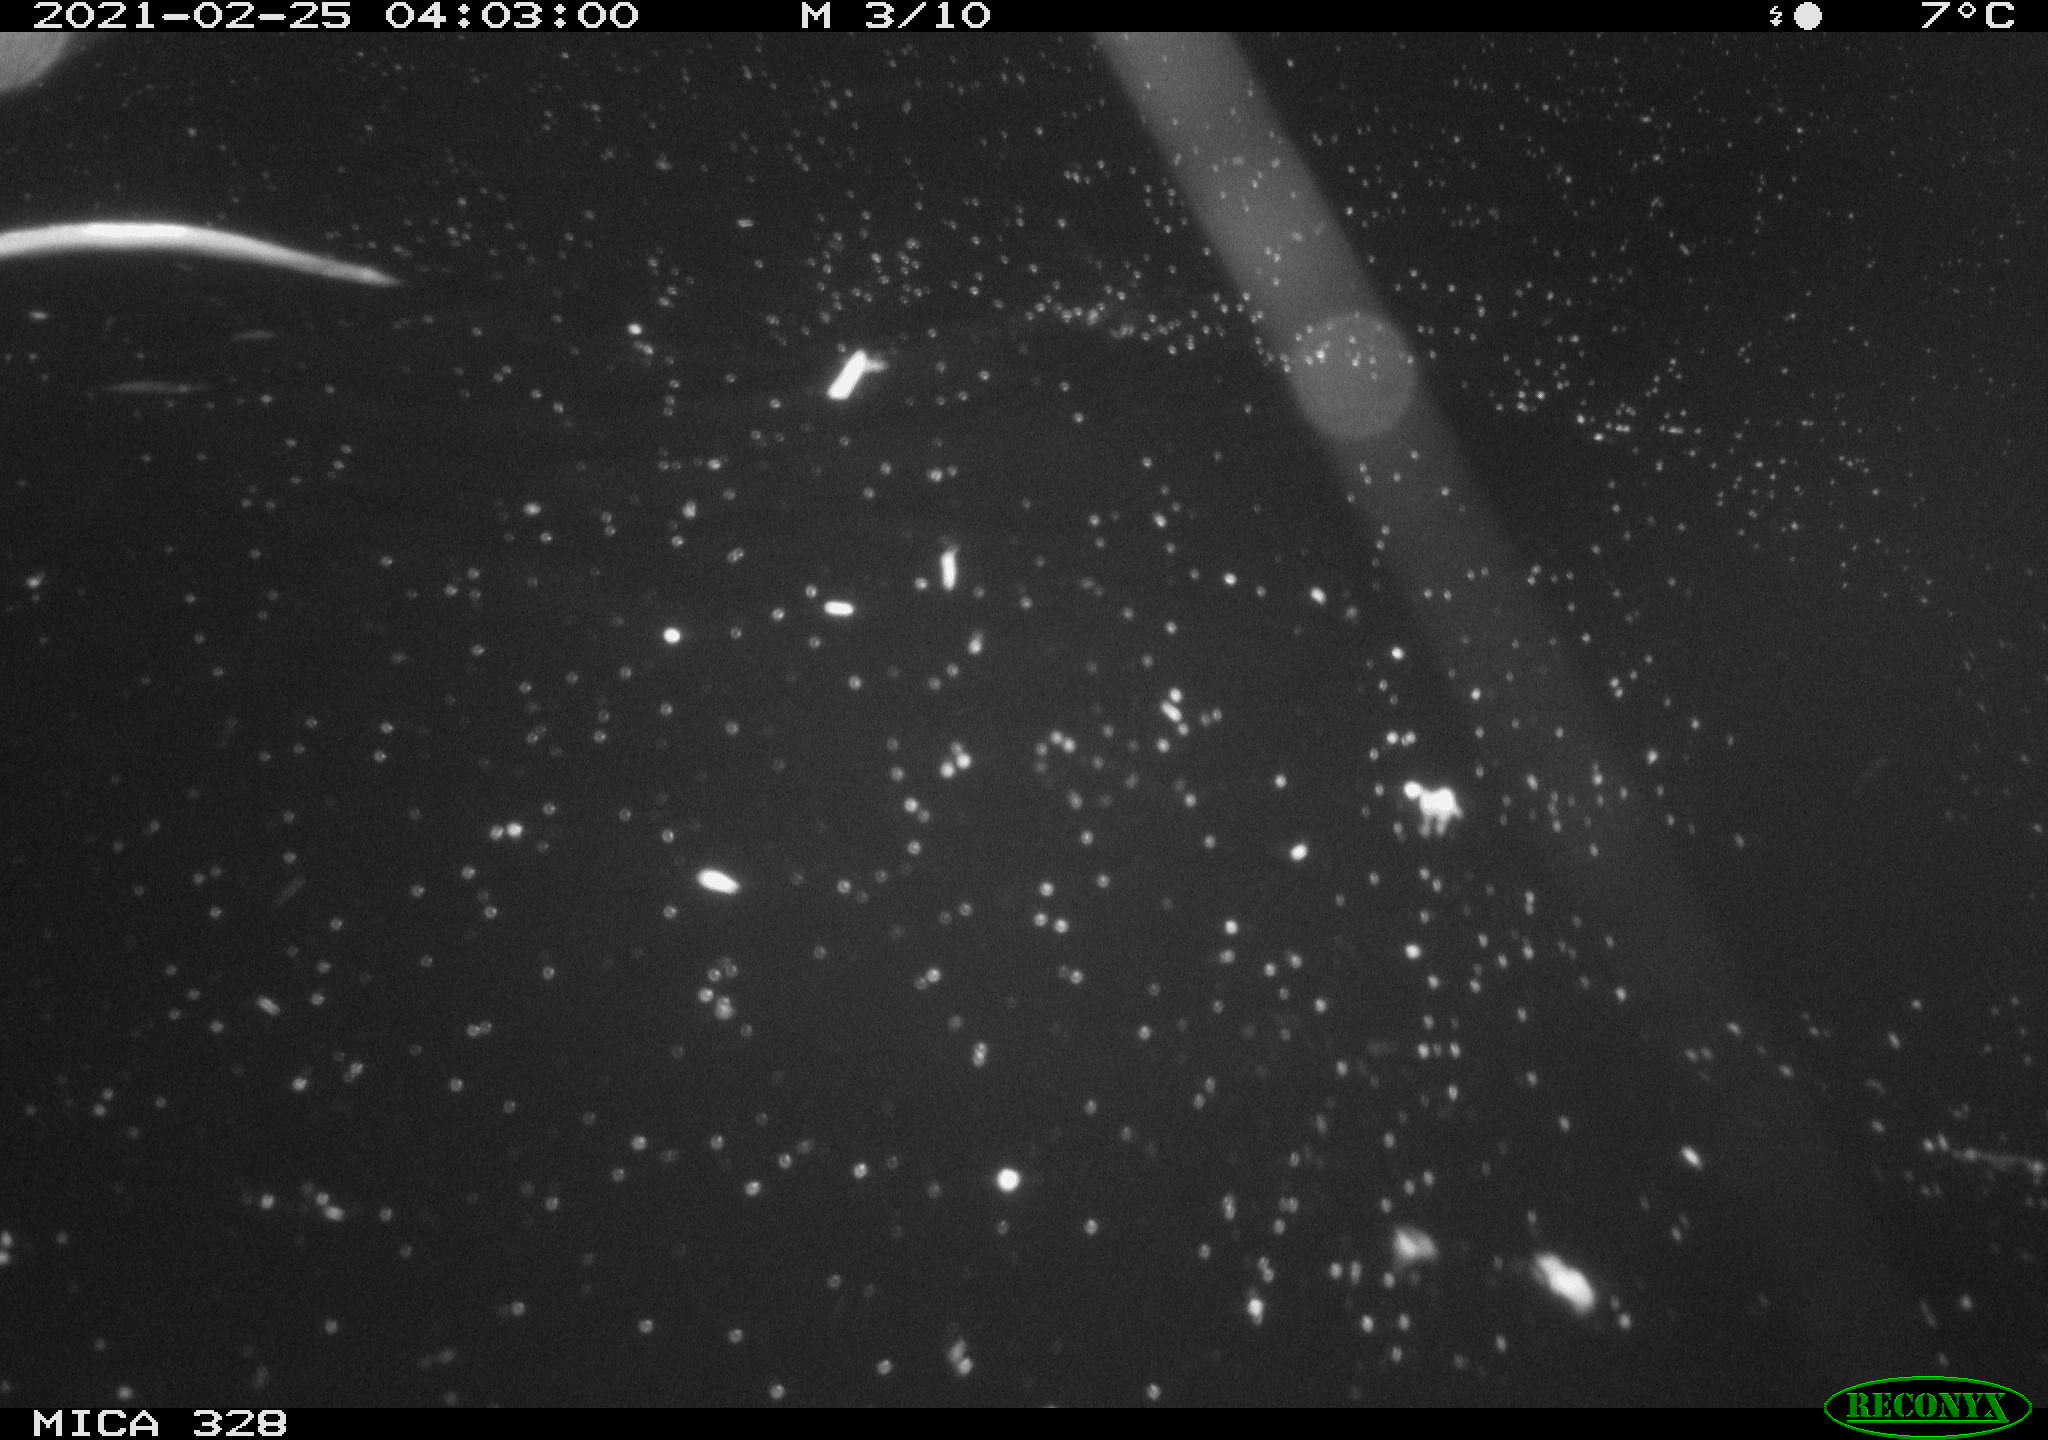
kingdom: Animalia
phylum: Chordata
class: Mammalia
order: Rodentia
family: Cricetidae
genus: Ondatra
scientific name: Ondatra zibethicus
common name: Muskrat
